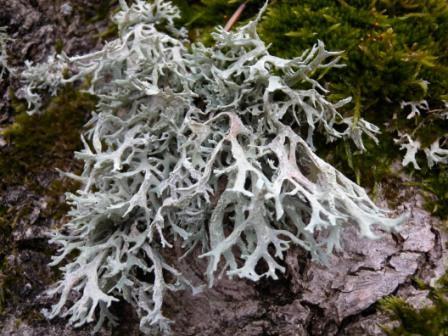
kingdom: Fungi
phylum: Ascomycota
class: Lecanoromycetes
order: Lecanorales
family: Parmeliaceae
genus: Evernia
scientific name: Evernia prunastri
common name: almindelig slåenlav
